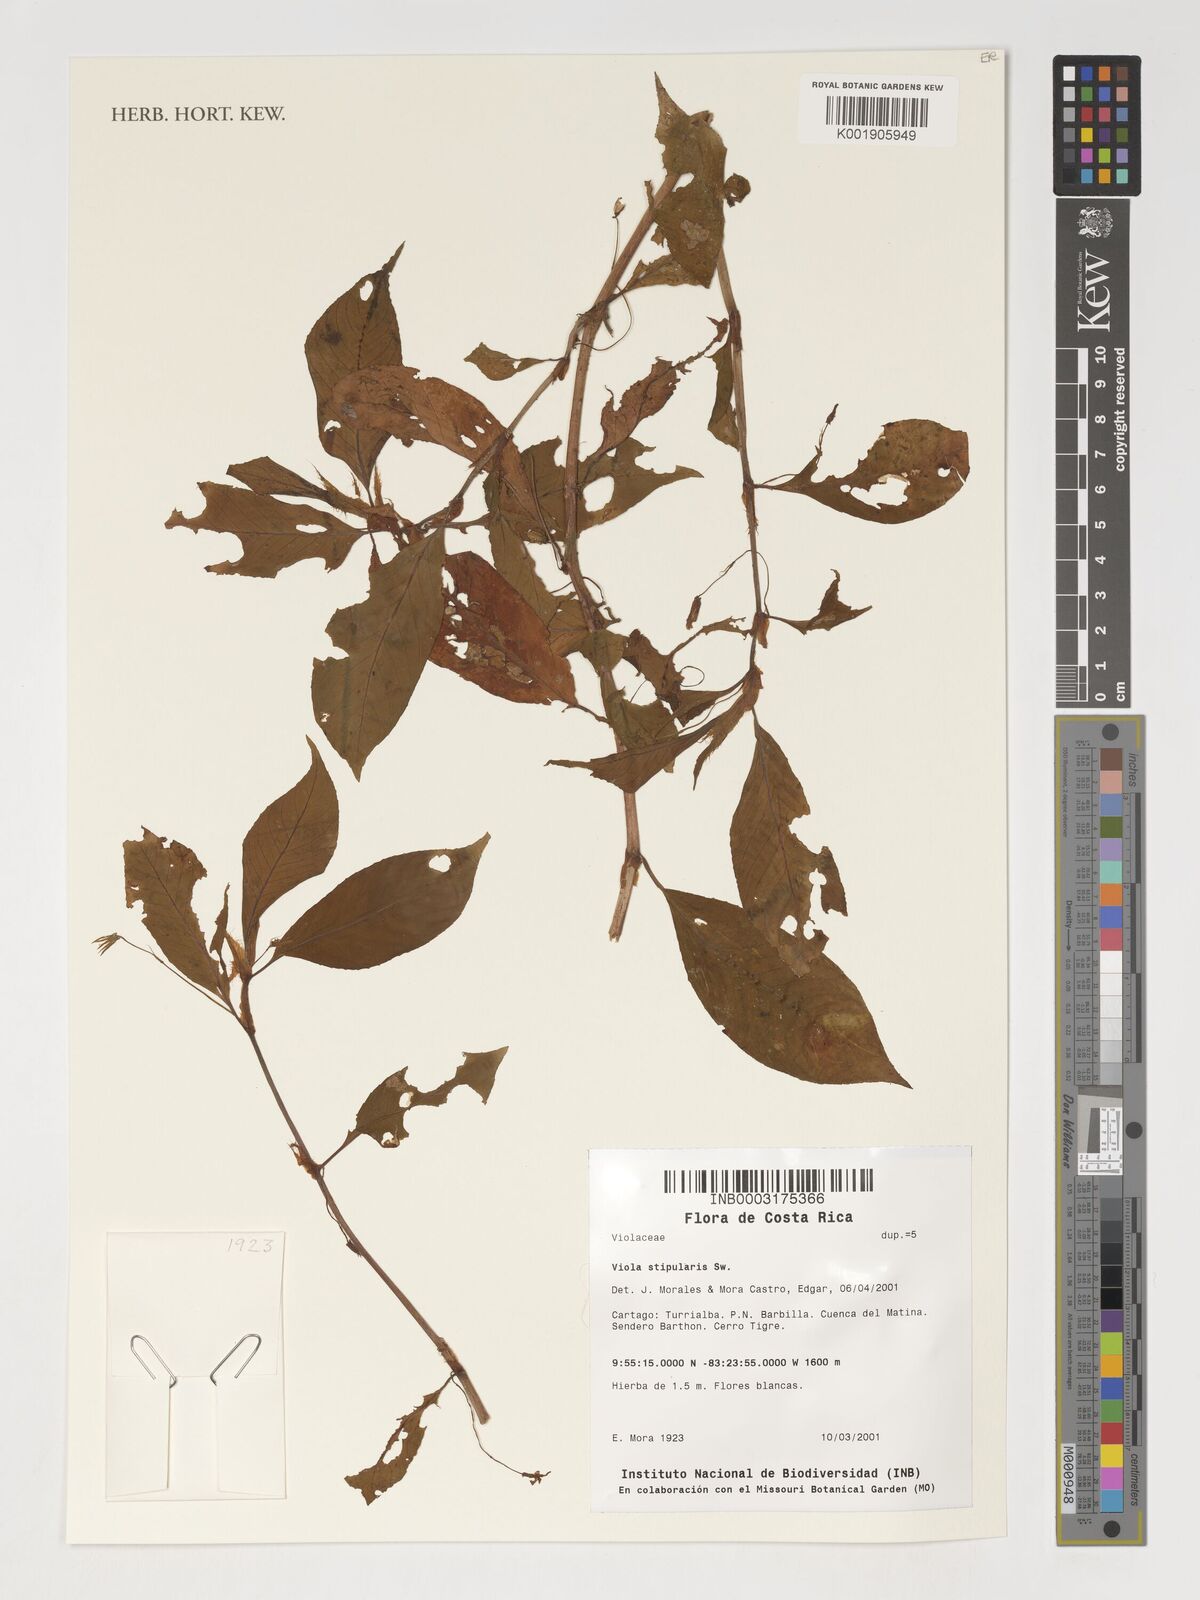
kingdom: Plantae
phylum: Tracheophyta
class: Magnoliopsida
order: Malpighiales
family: Violaceae
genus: Viola
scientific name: Viola stipularis
